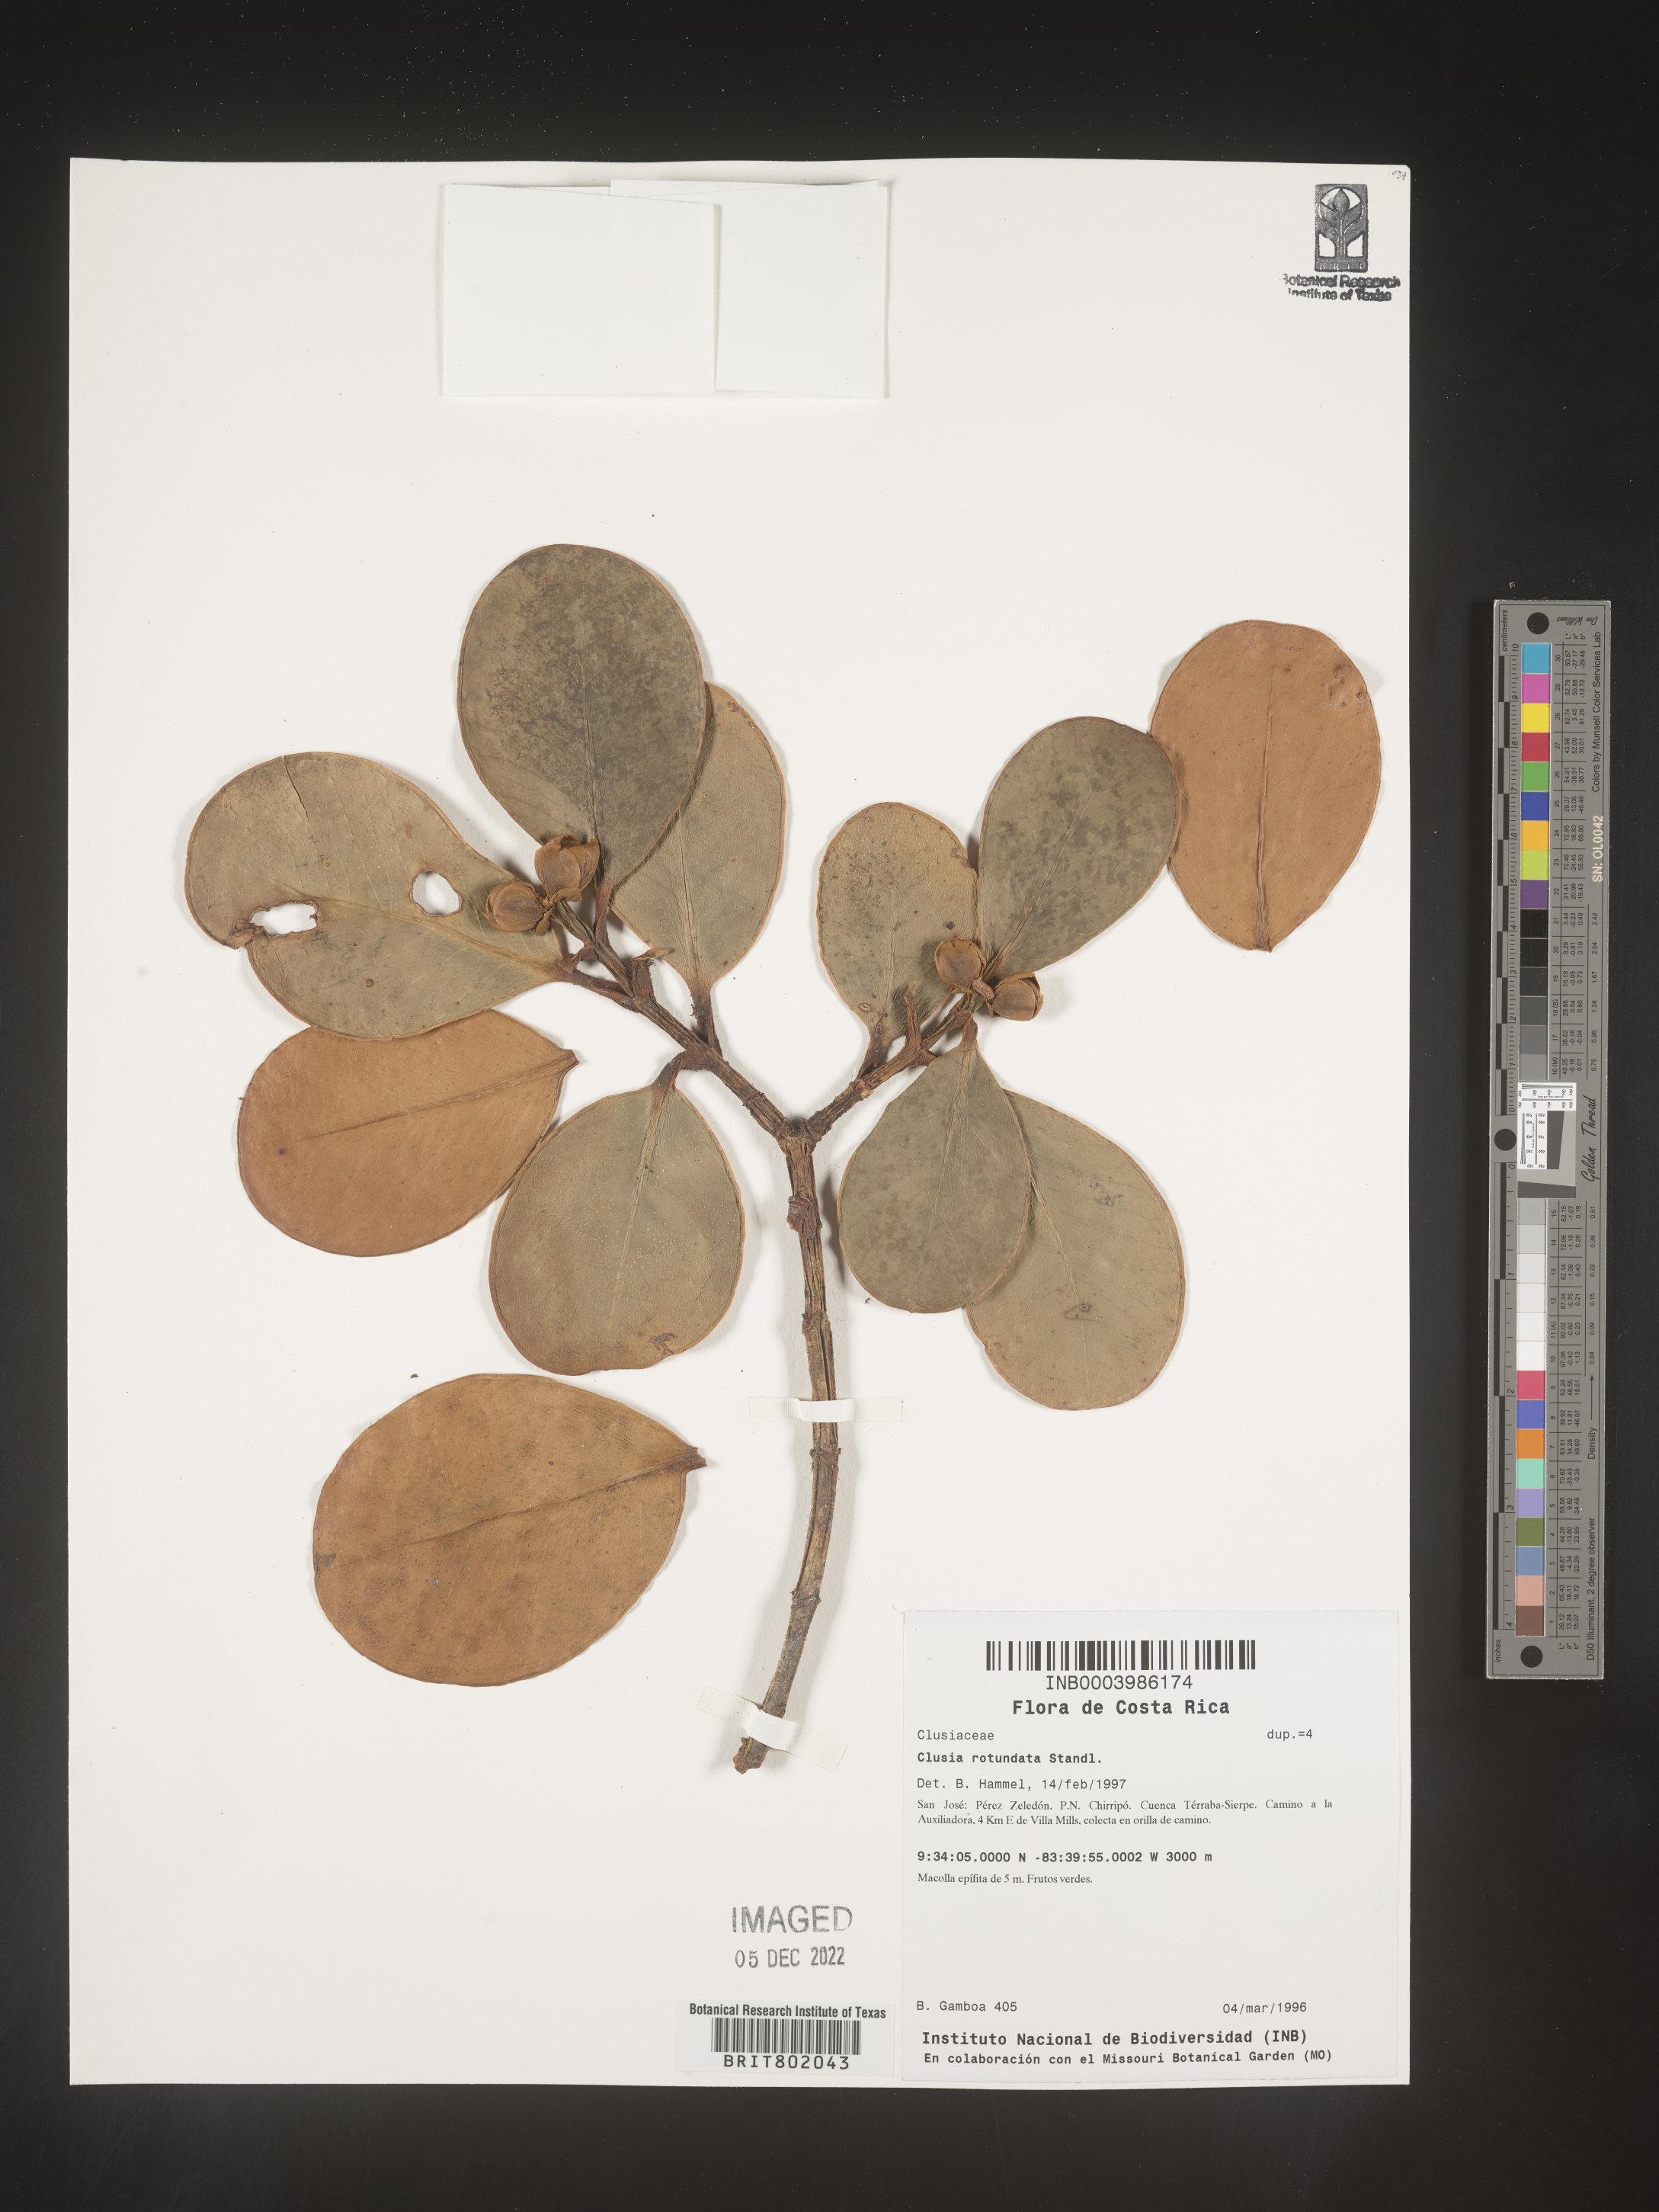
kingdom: Plantae
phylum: Tracheophyta
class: Magnoliopsida
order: Malpighiales
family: Clusiaceae
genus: Clusia
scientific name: Clusia
